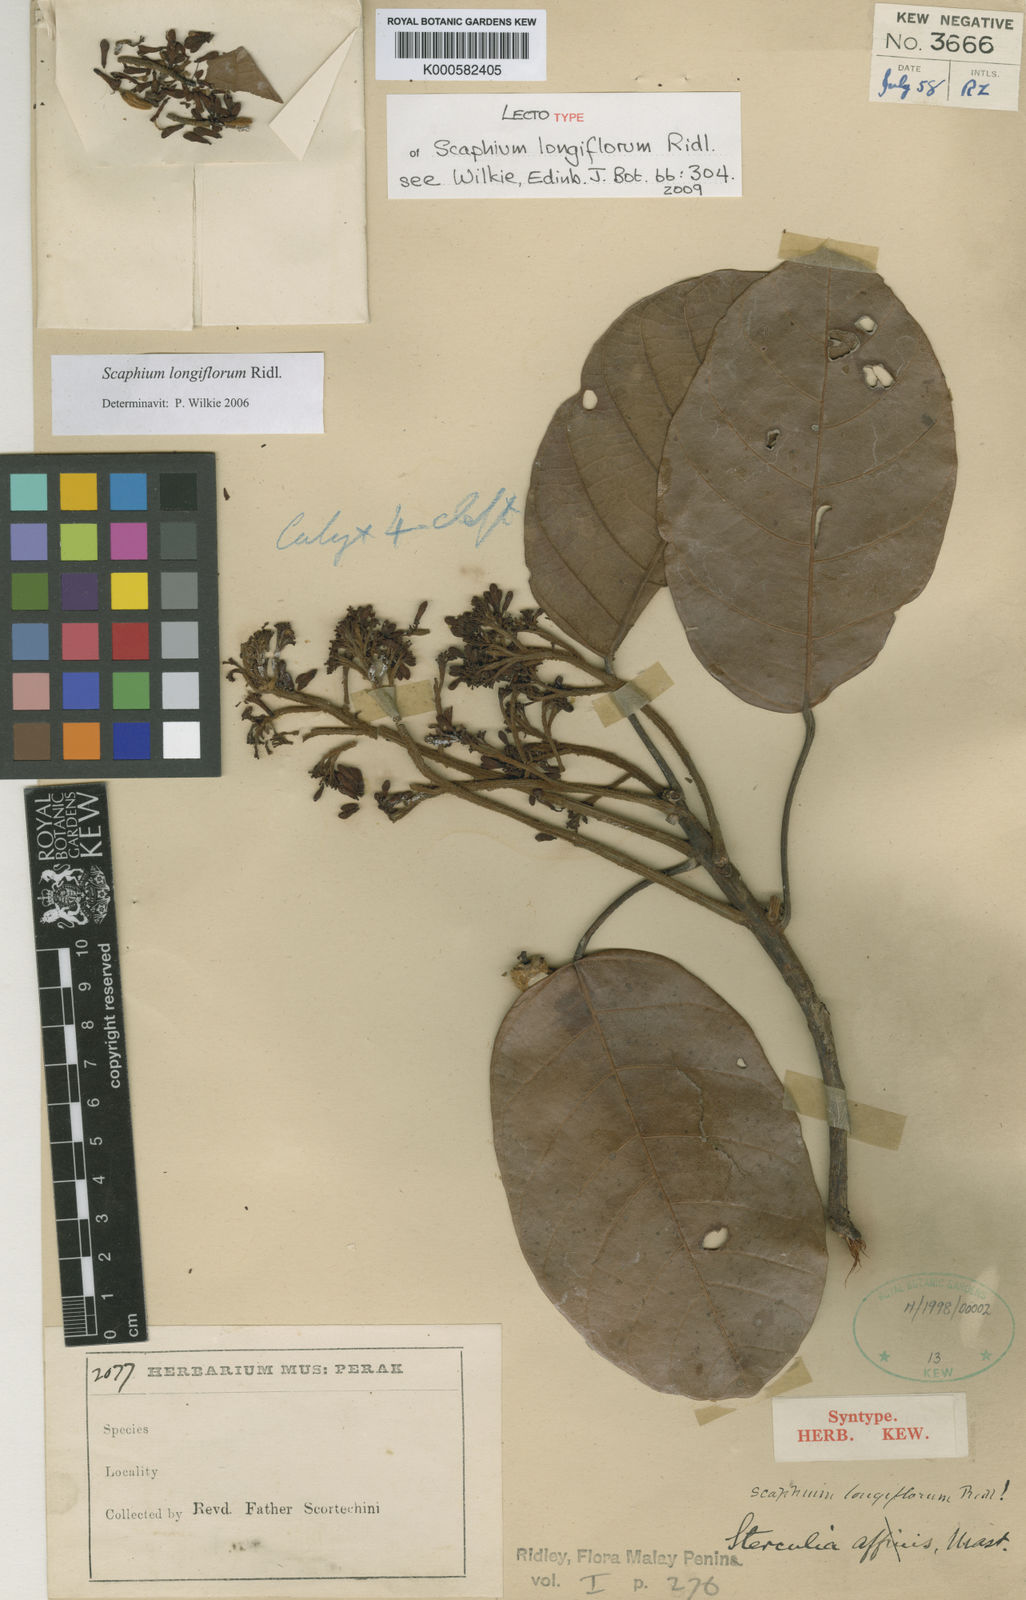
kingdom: Plantae
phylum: Tracheophyta
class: Magnoliopsida
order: Malvales
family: Malvaceae
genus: Scaphium
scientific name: Scaphium longiflorum
